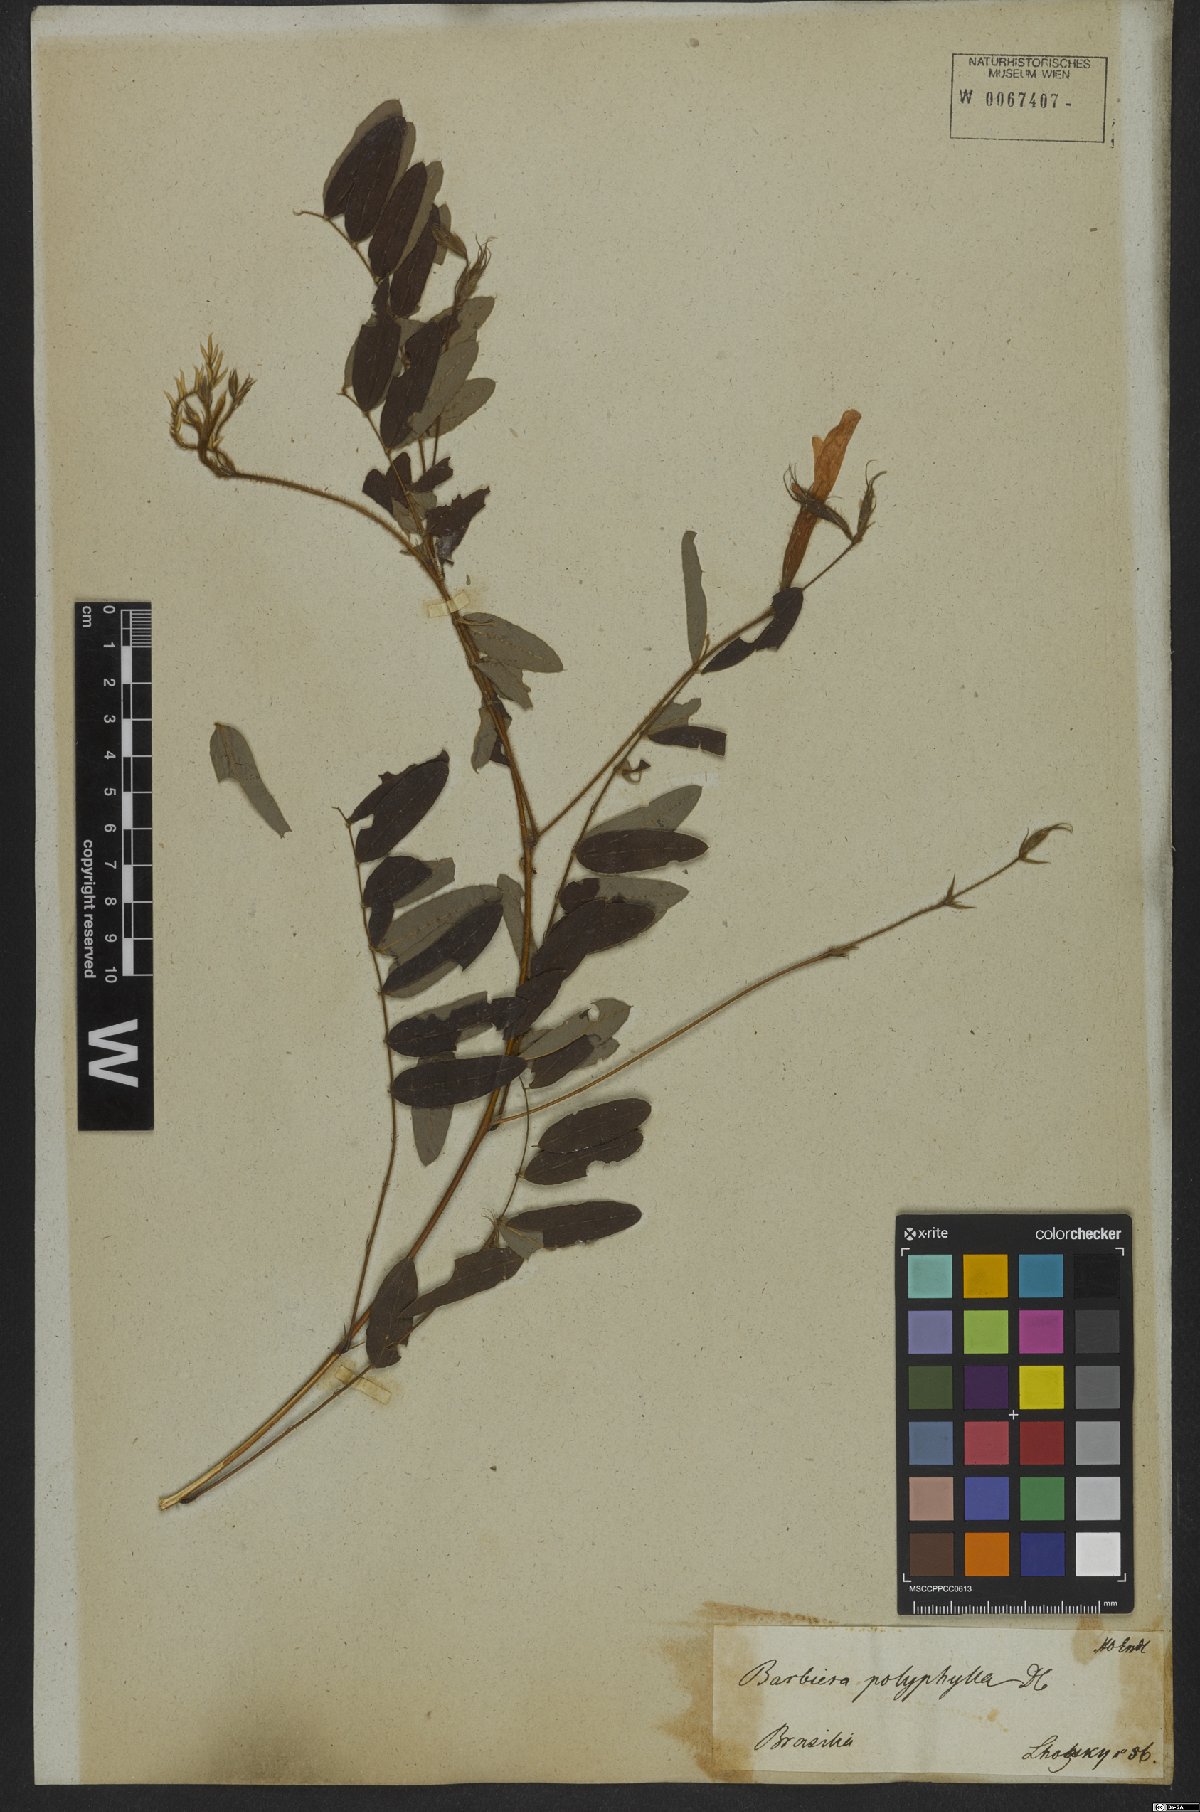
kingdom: Plantae
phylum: Tracheophyta
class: Magnoliopsida
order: Fabales
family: Fabaceae
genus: Barbieria
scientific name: Barbieria pinnata
